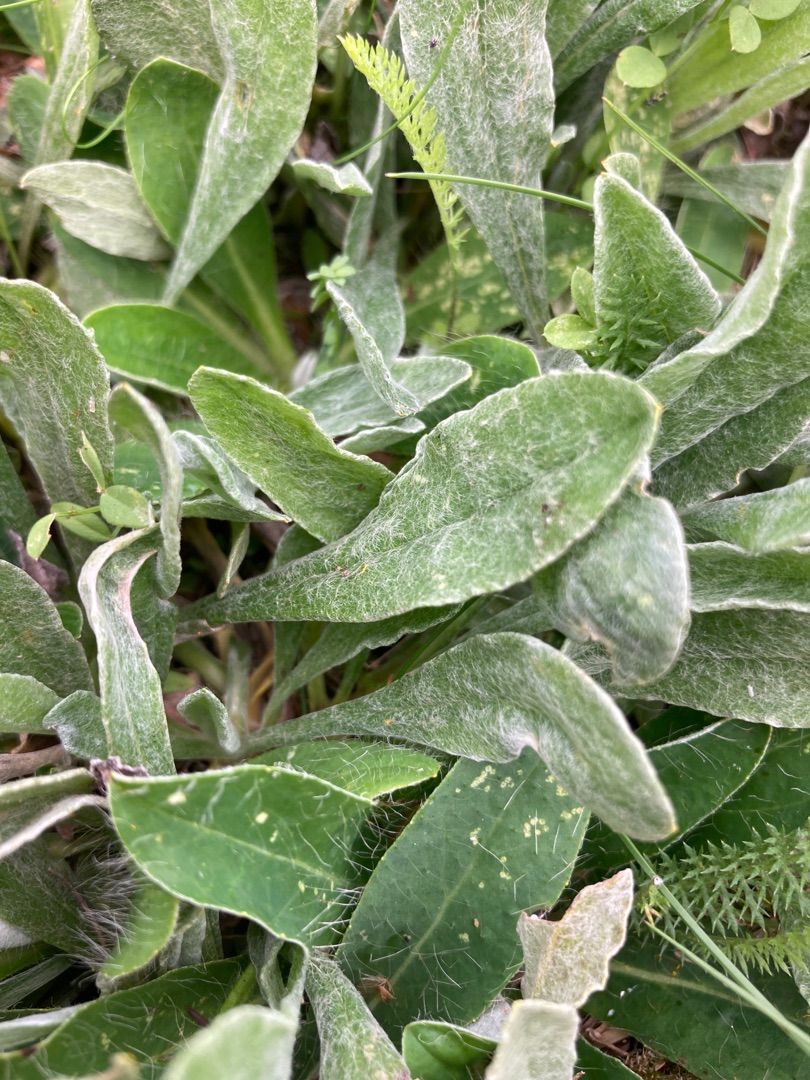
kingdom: Plantae
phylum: Tracheophyta
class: Magnoliopsida
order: Asterales
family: Asteraceae
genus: Helichrysum
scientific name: Helichrysum arenarium
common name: Gul evighedsblomst
